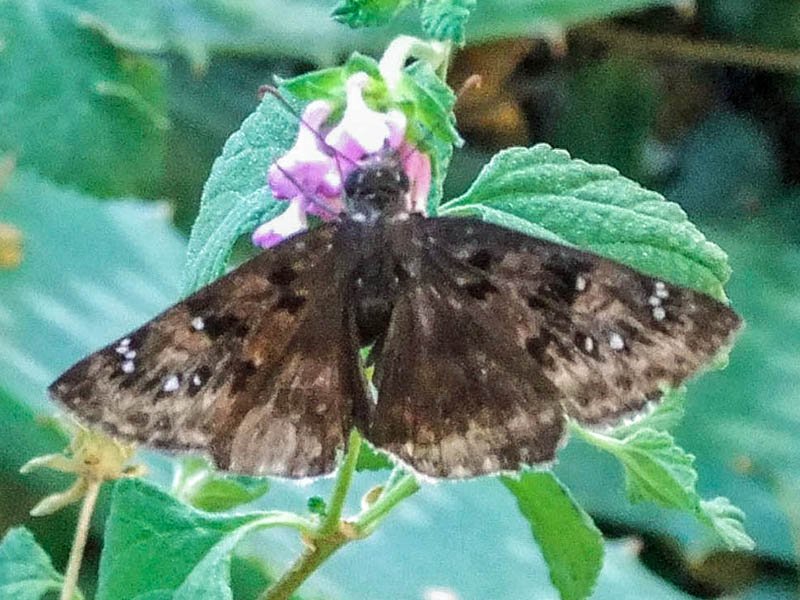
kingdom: Animalia
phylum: Arthropoda
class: Insecta
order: Lepidoptera
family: Hesperiidae
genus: Gesta
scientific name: Gesta
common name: Juvenal's Duskywing
